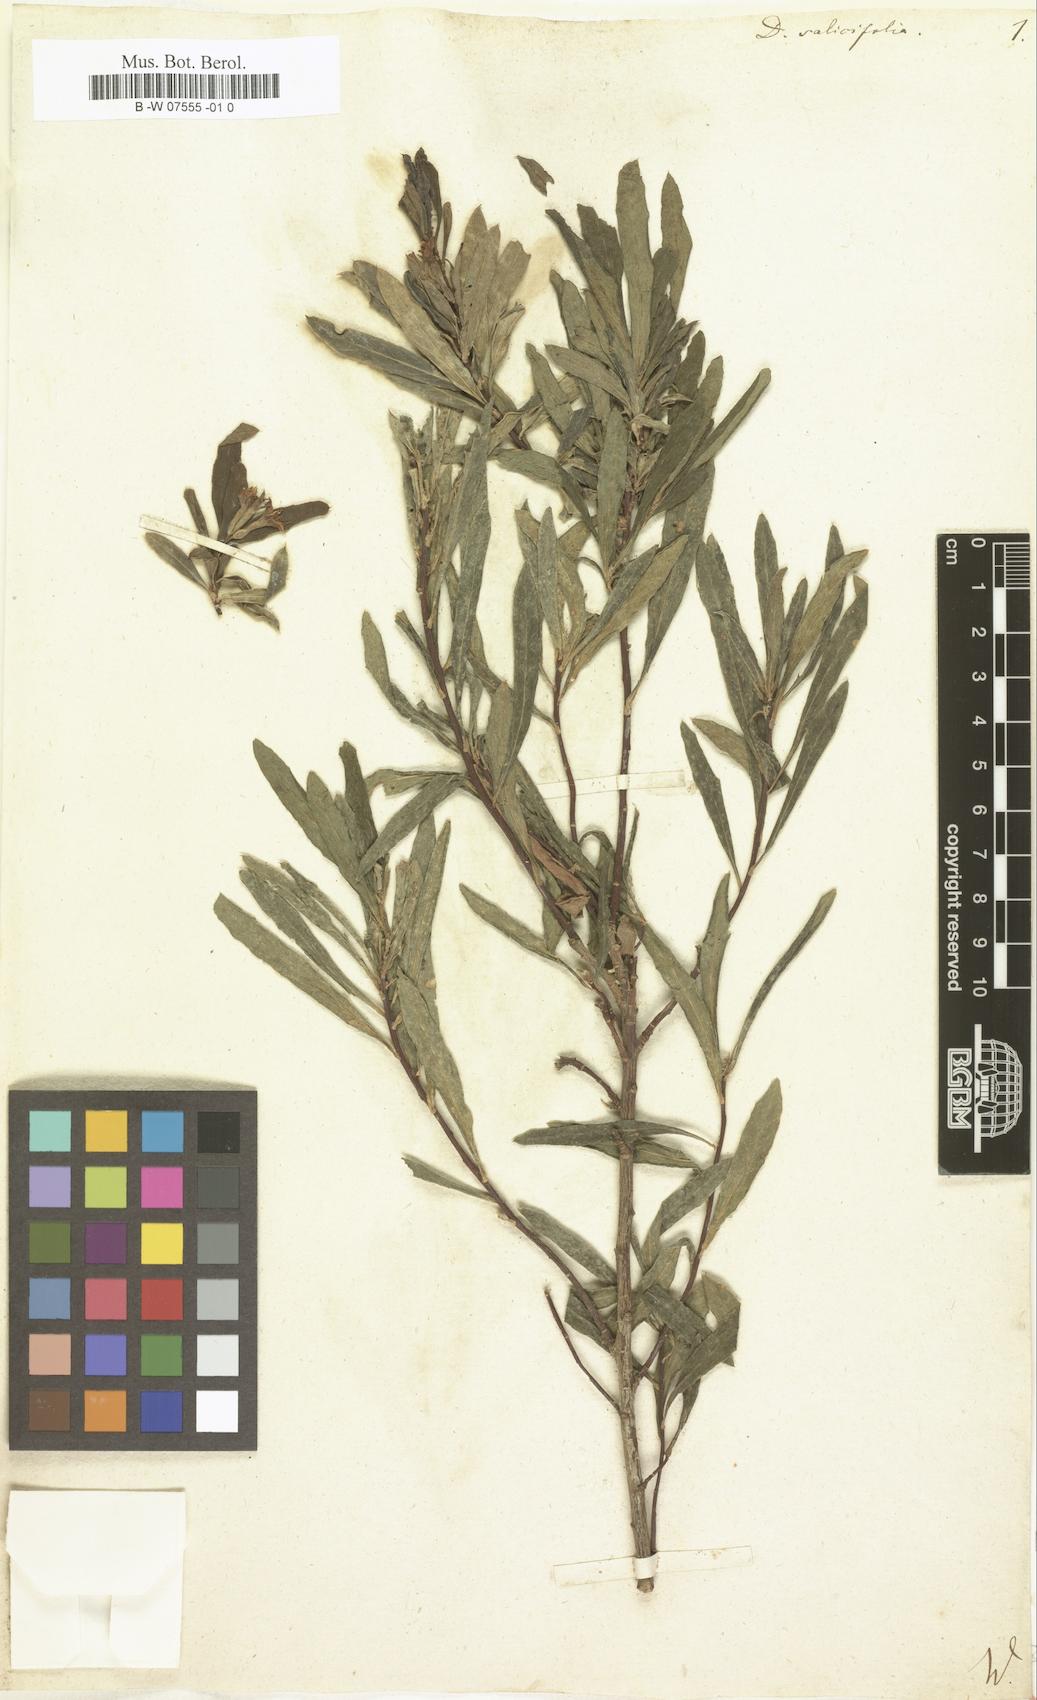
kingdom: Plantae
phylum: Tracheophyta
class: Magnoliopsida
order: Malvales
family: Thymelaeaceae
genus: Daphne
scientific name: Daphne caucasica
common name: Caucasian daphne
